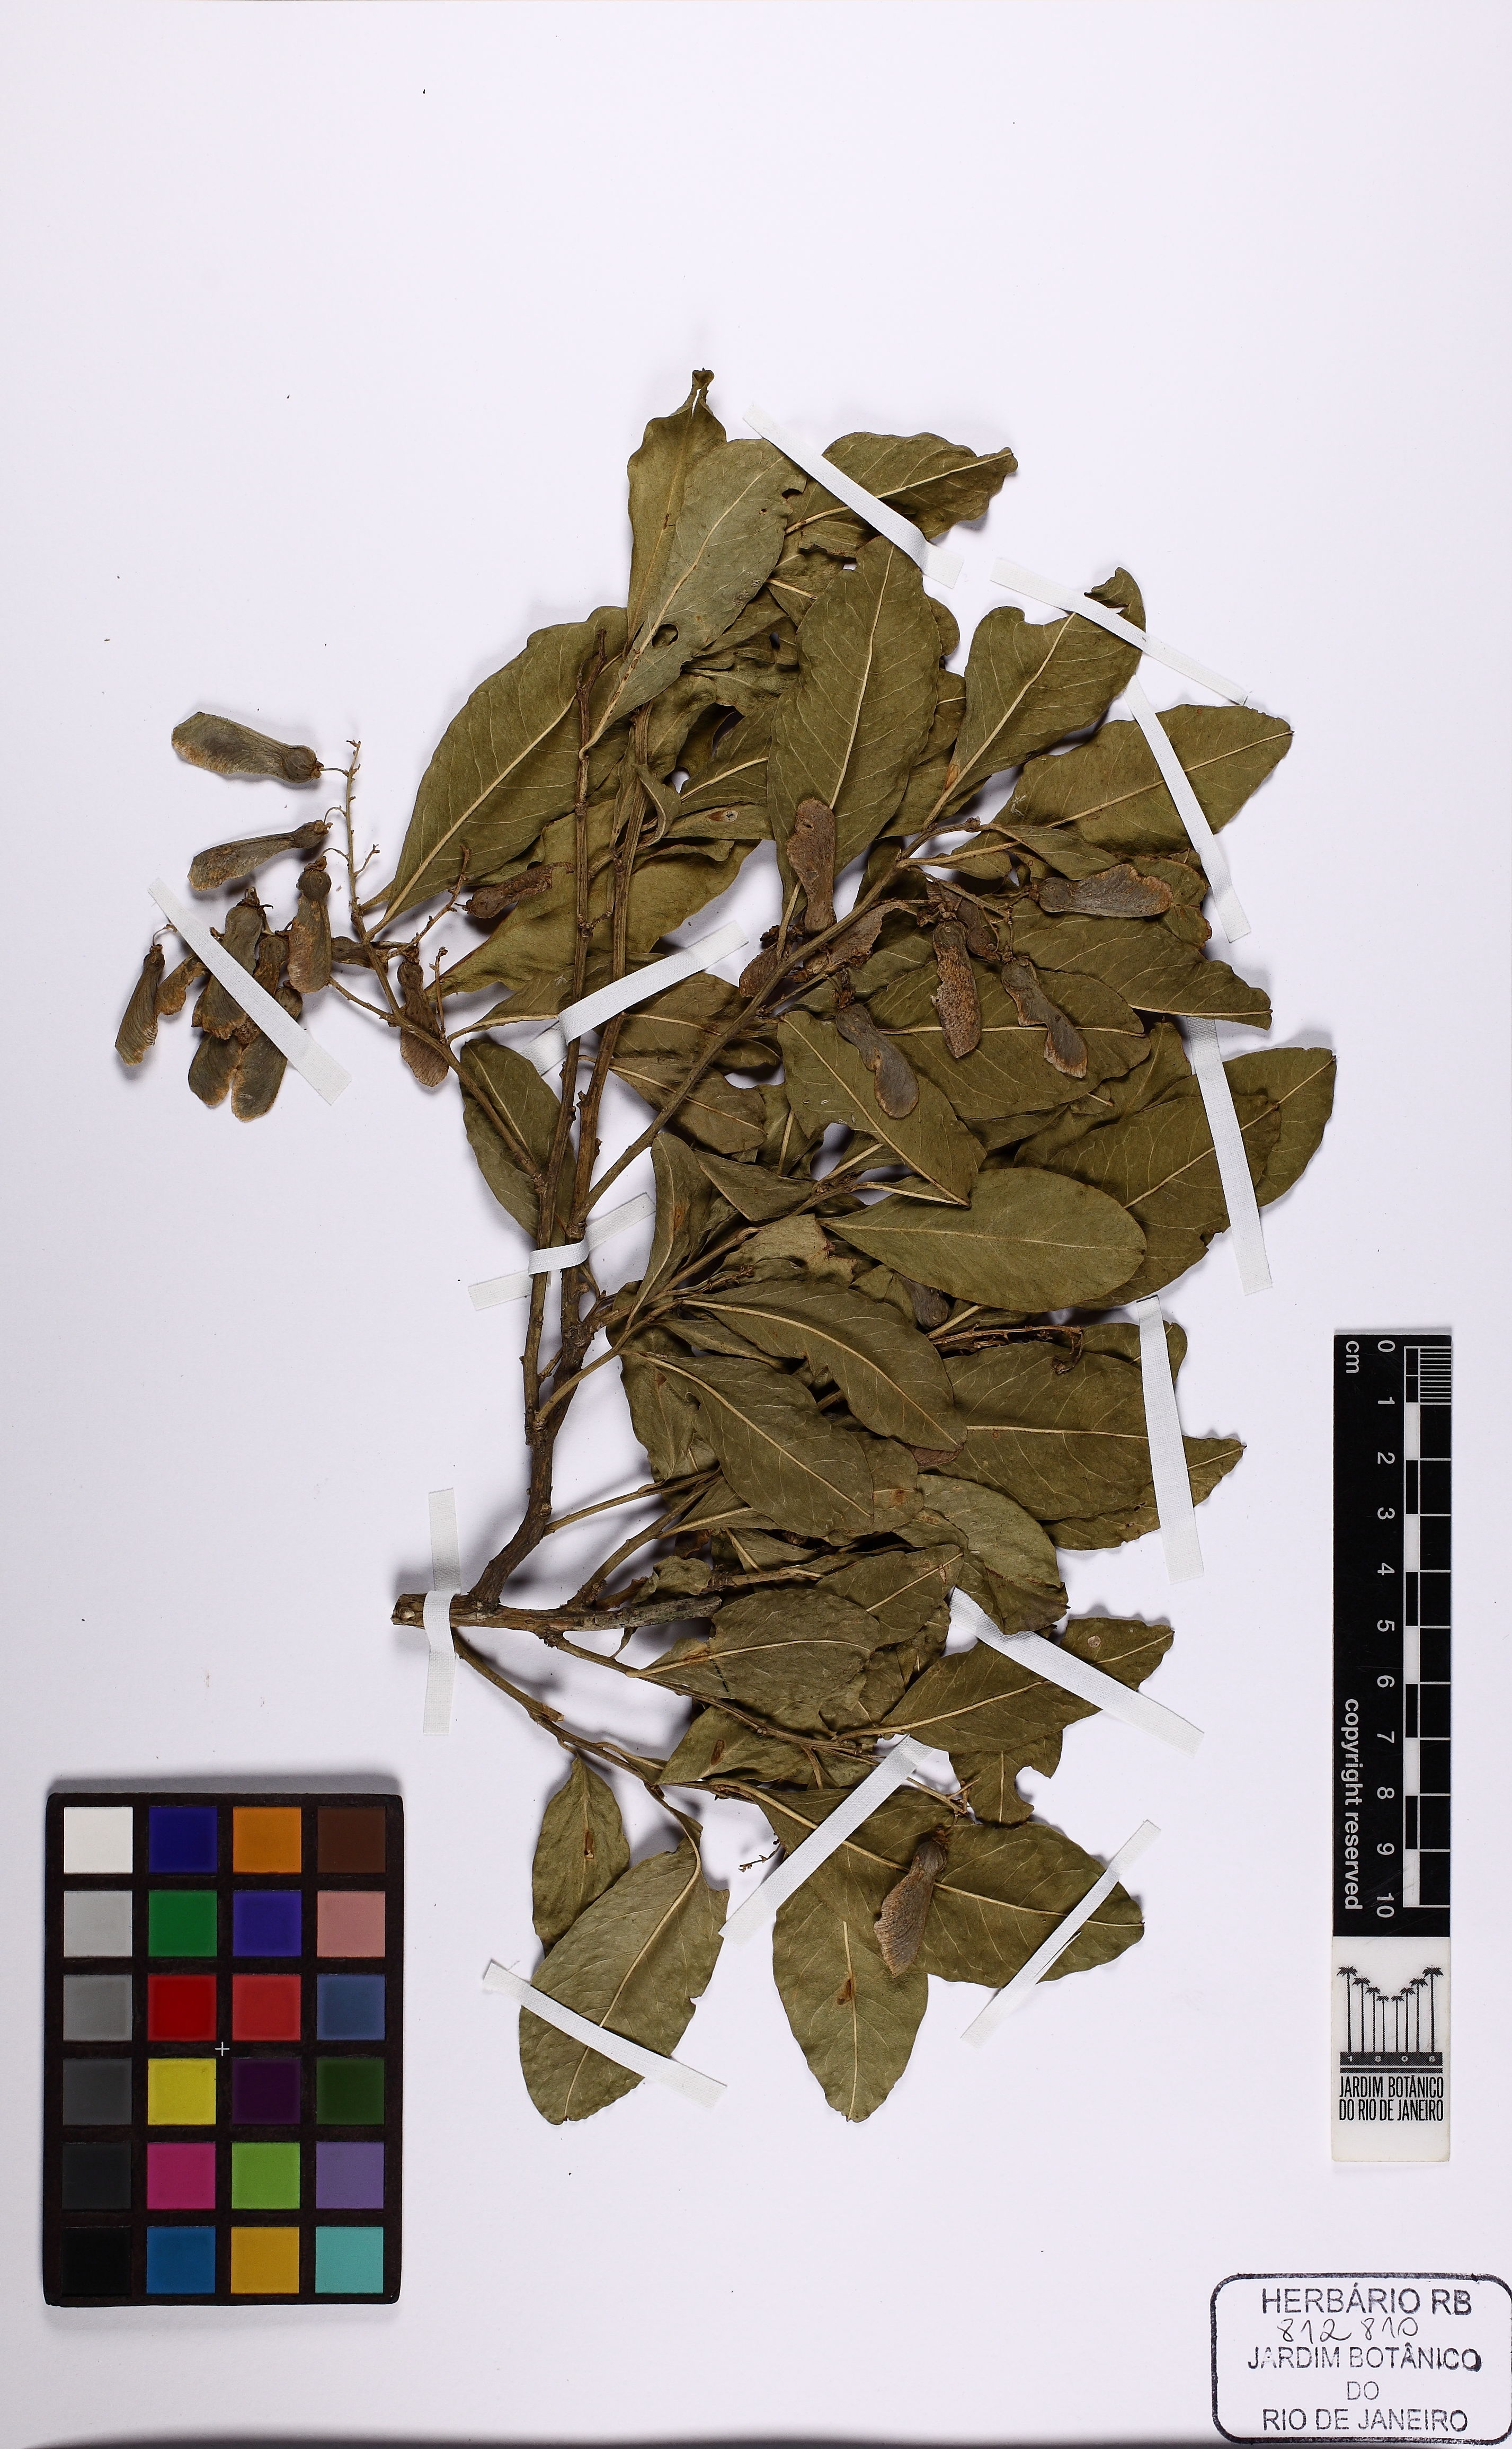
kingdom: Plantae
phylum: Tracheophyta
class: Magnoliopsida
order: Caryophyllales
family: Phytolaccaceae
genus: Seguieria
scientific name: Seguieria langsdorffii
